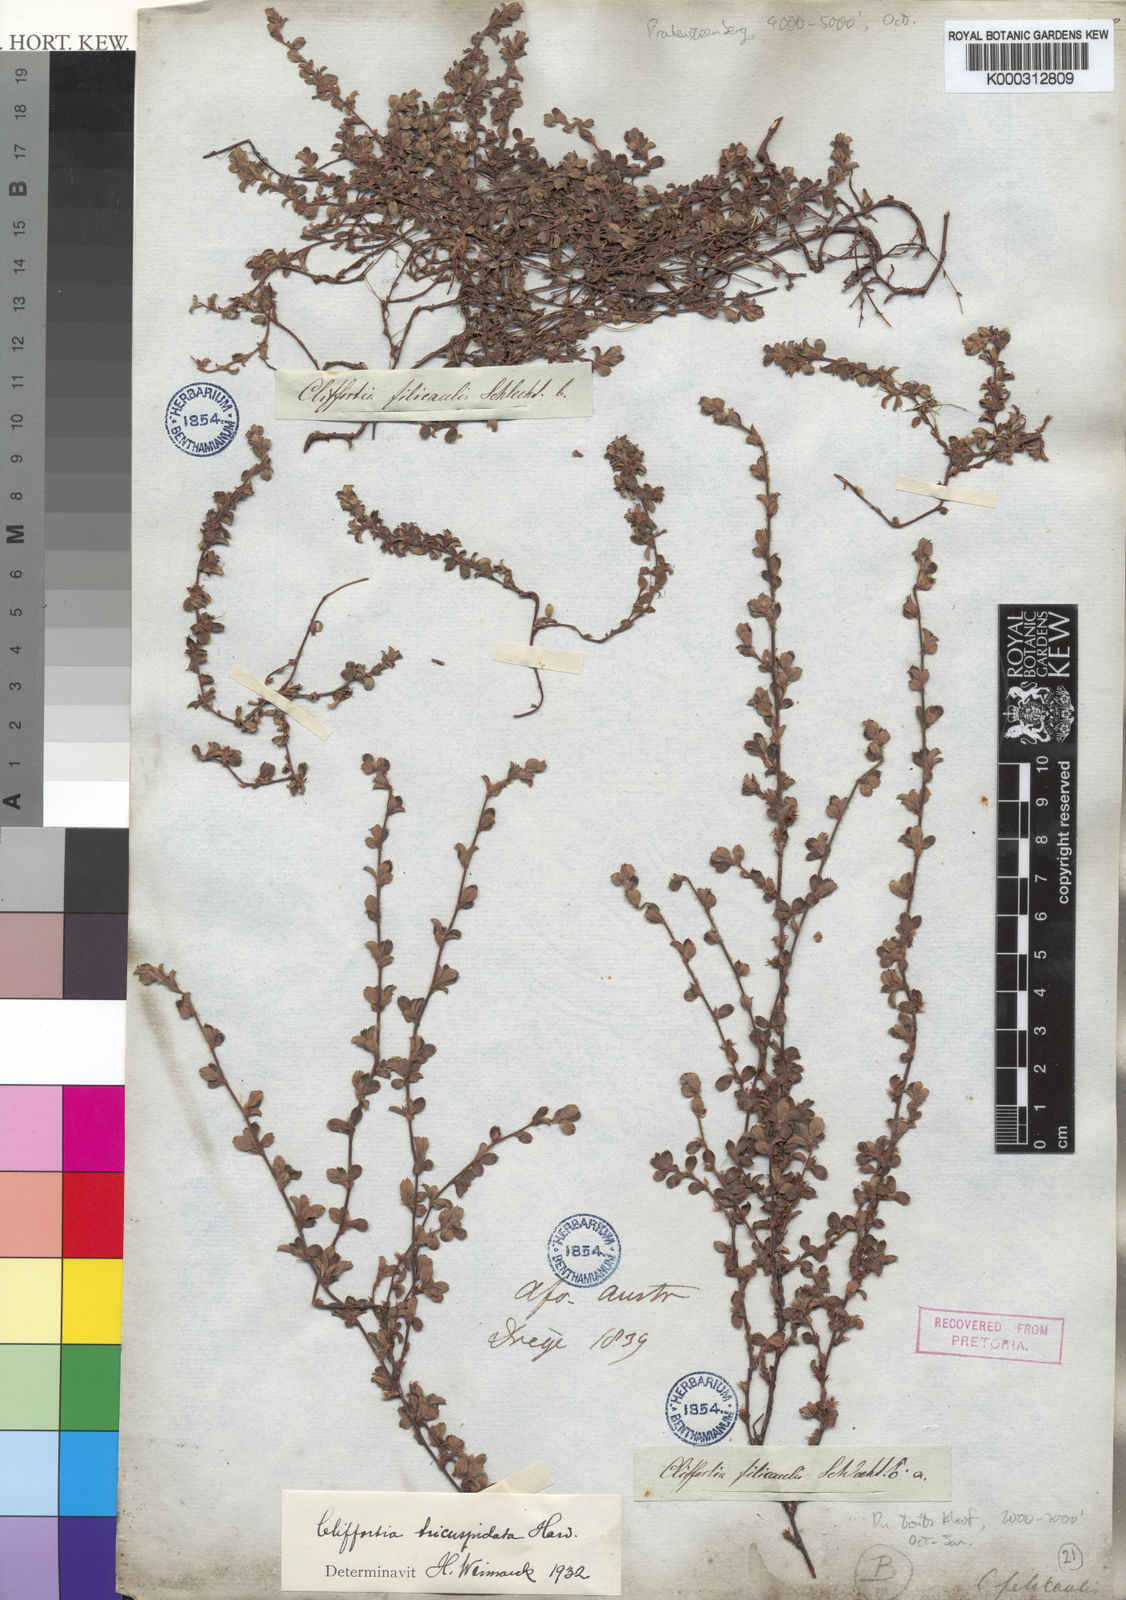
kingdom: Plantae
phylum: Tracheophyta
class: Magnoliopsida
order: Rosales
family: Rosaceae
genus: Cliffortia
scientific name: Cliffortia filicaulis
